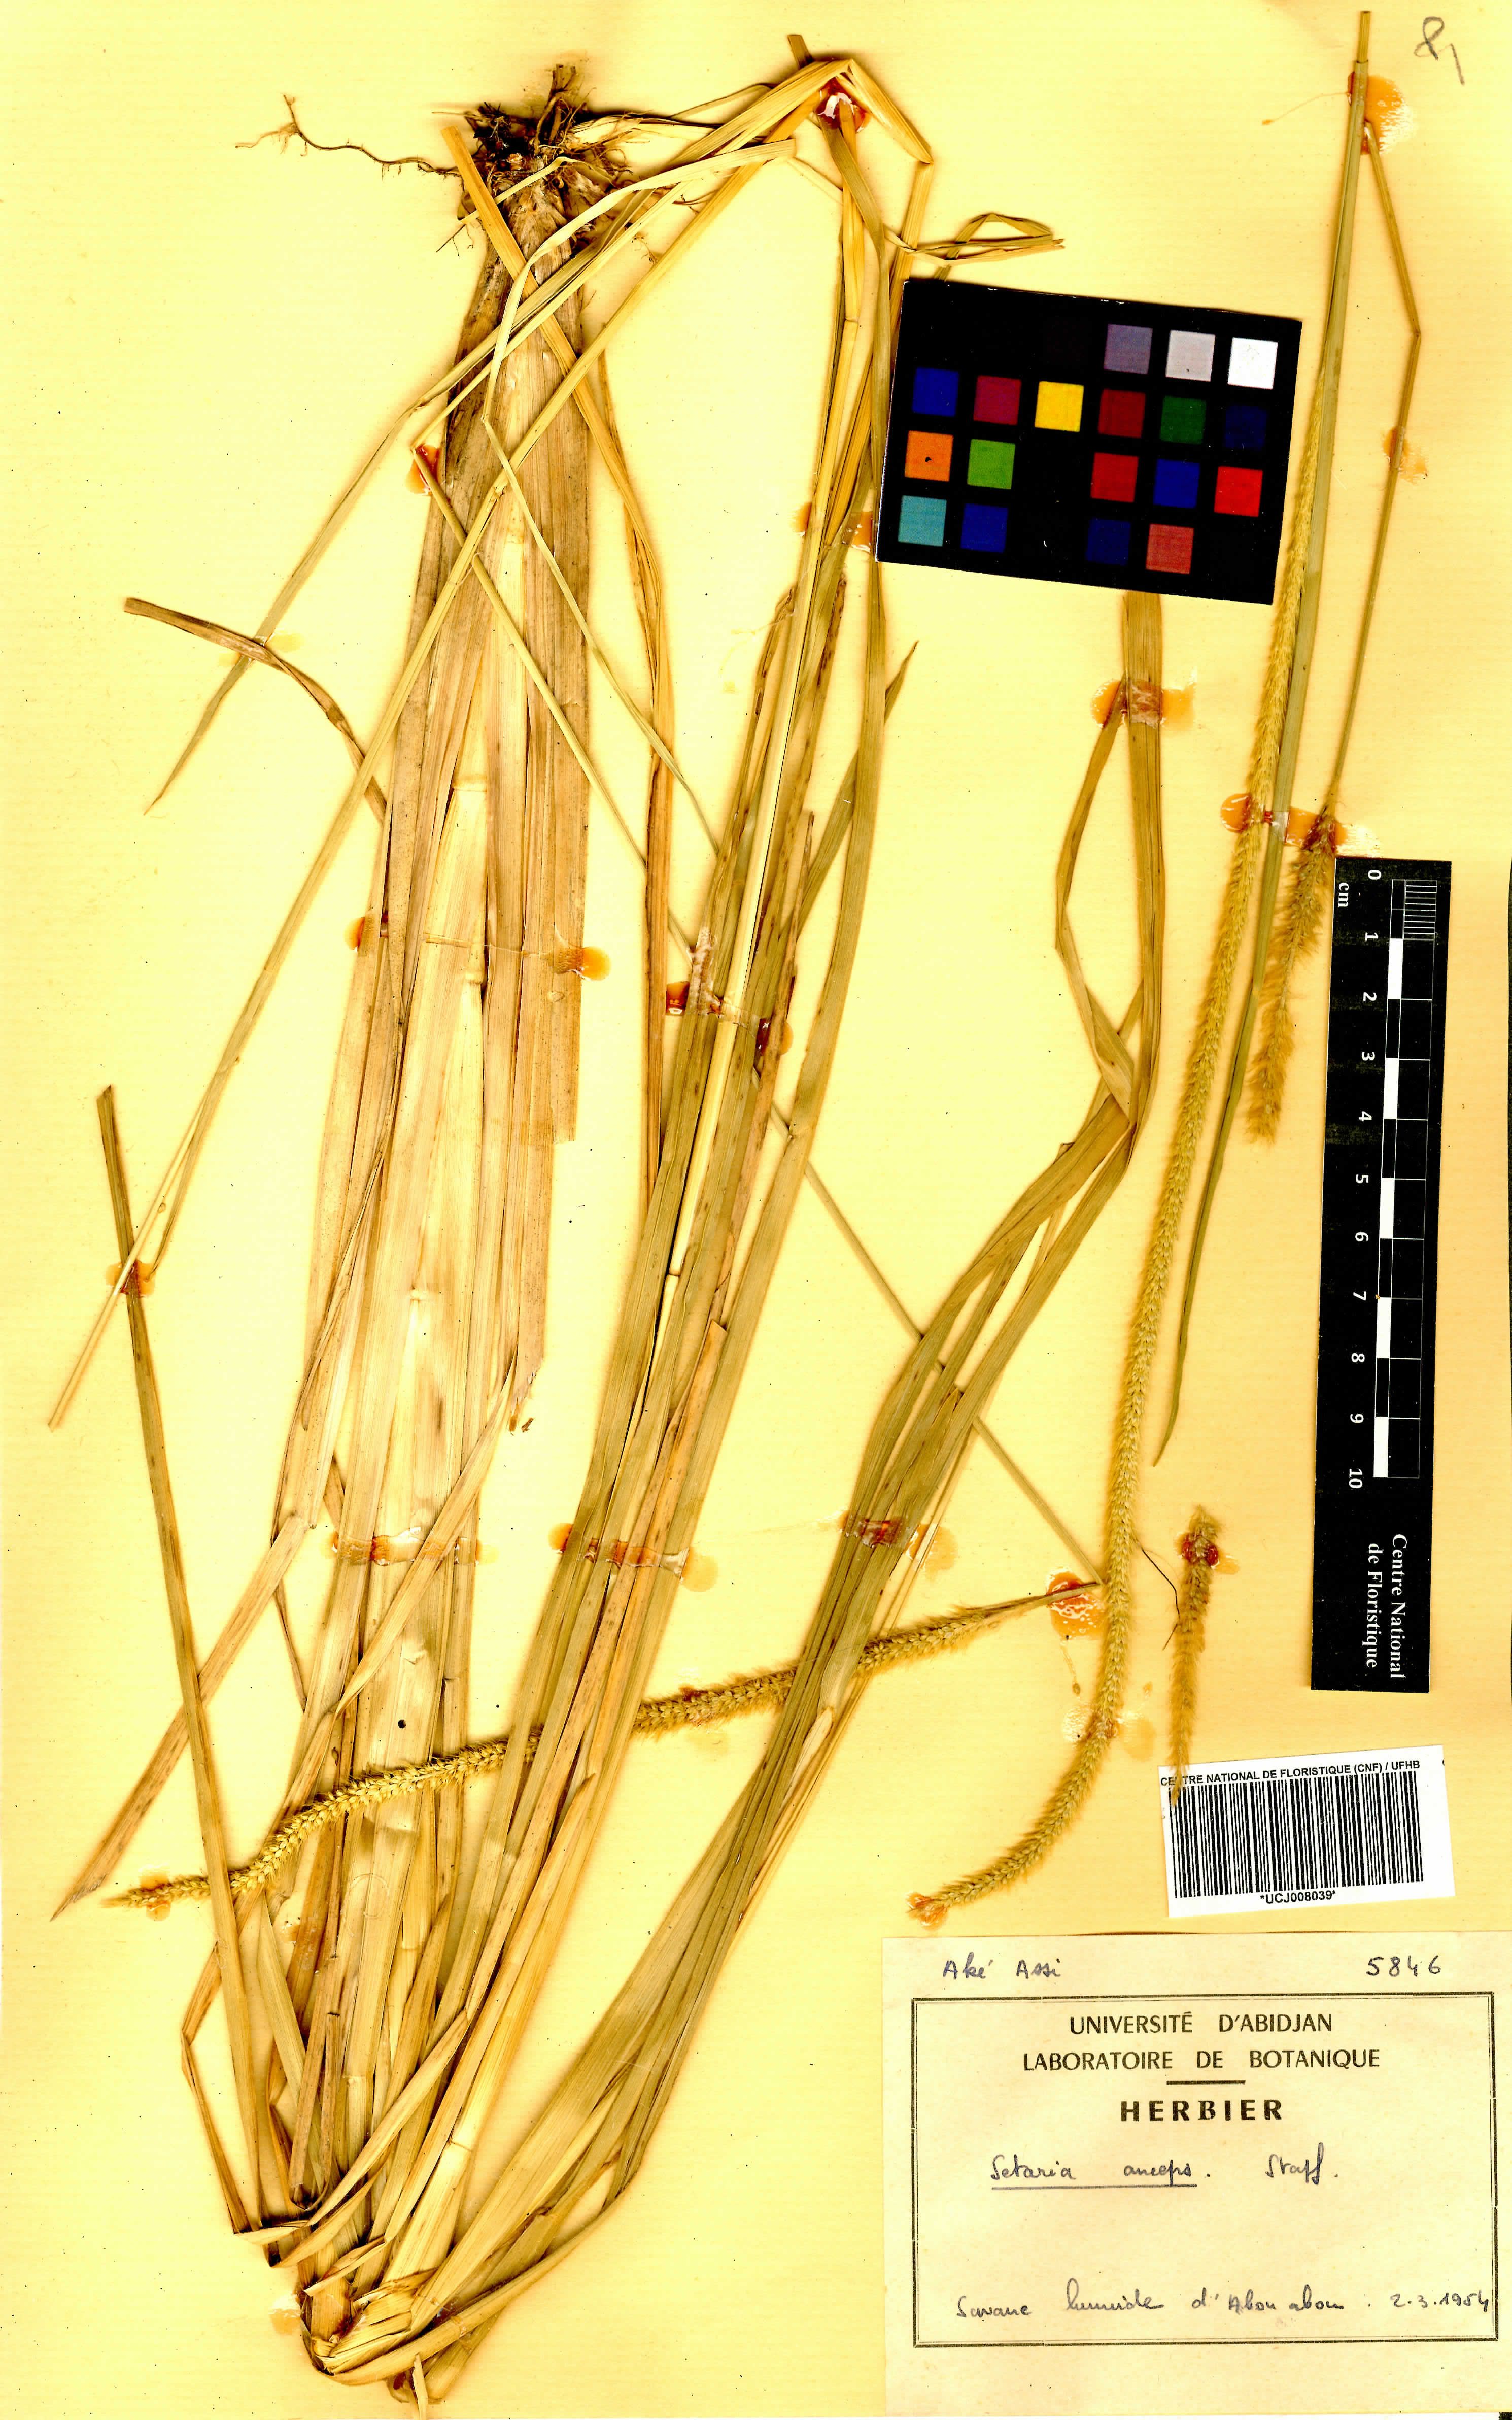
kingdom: Plantae
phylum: Tracheophyta
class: Liliopsida
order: Poales
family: Poaceae
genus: Setaria
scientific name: Setaria sphacelata
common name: African bristlegrass
